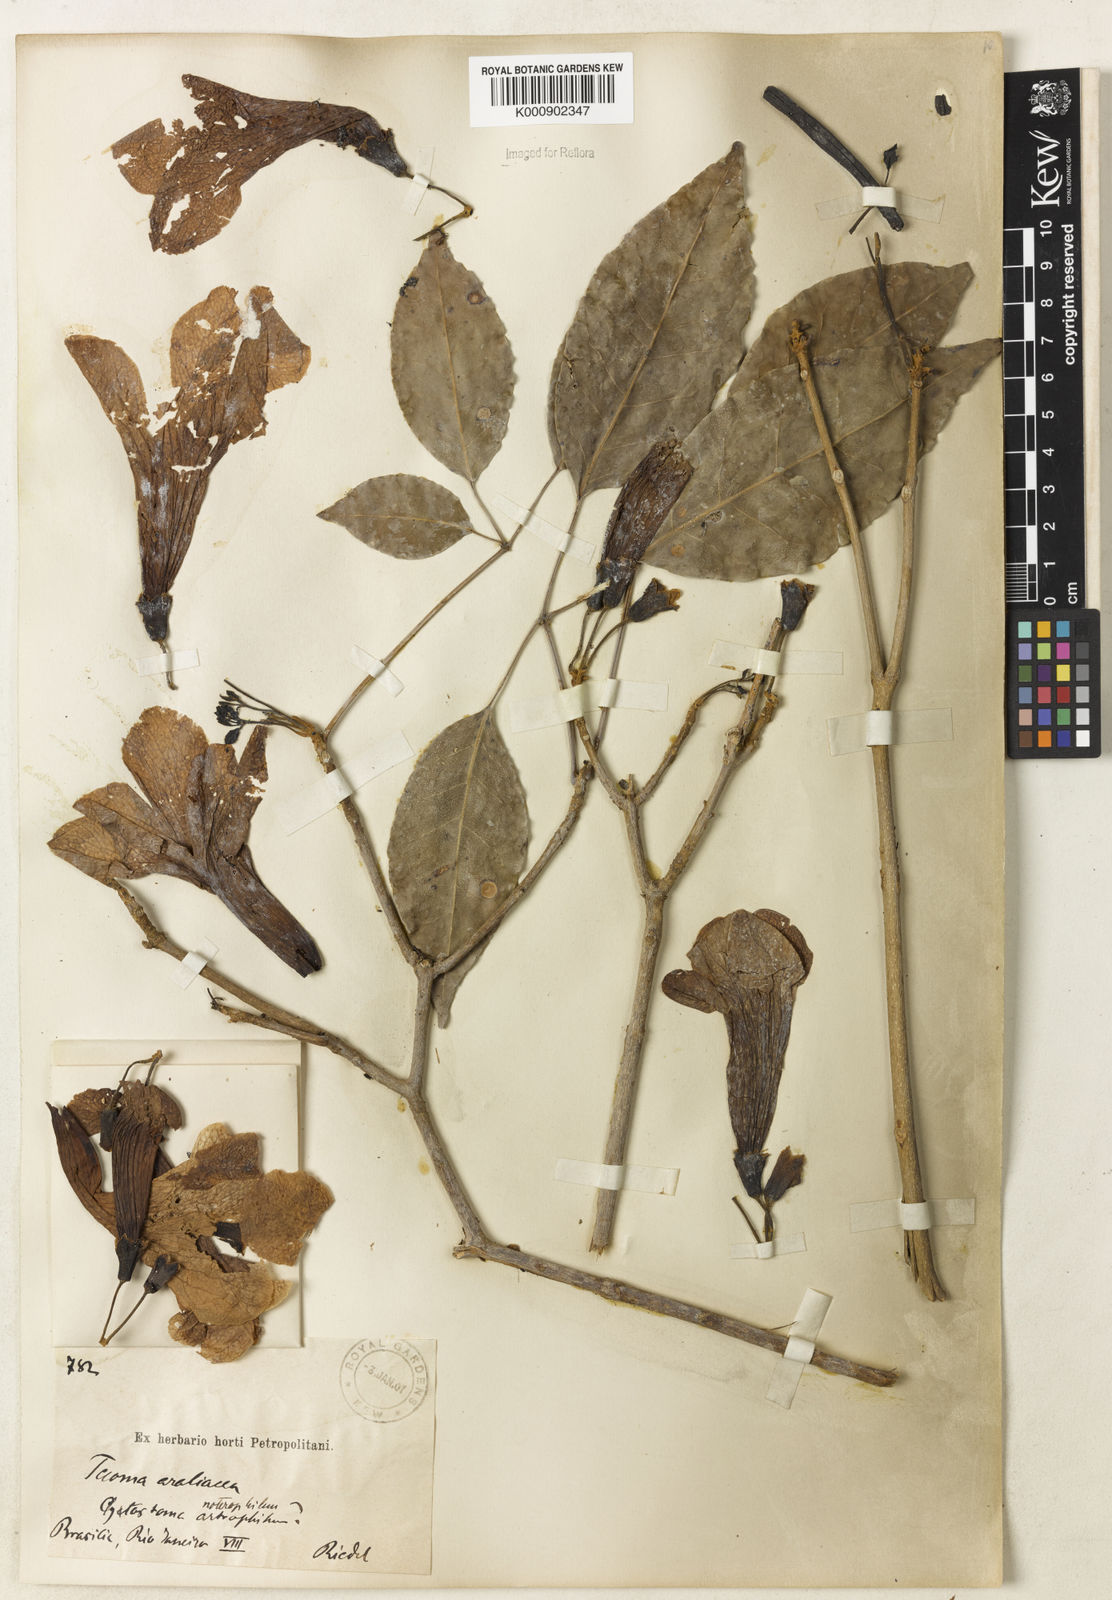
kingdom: Plantae
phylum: Tracheophyta
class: Magnoliopsida
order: Lamiales
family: Bignoniaceae
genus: Handroanthus
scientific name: Handroanthus serratifolius
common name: Yellow ipe
